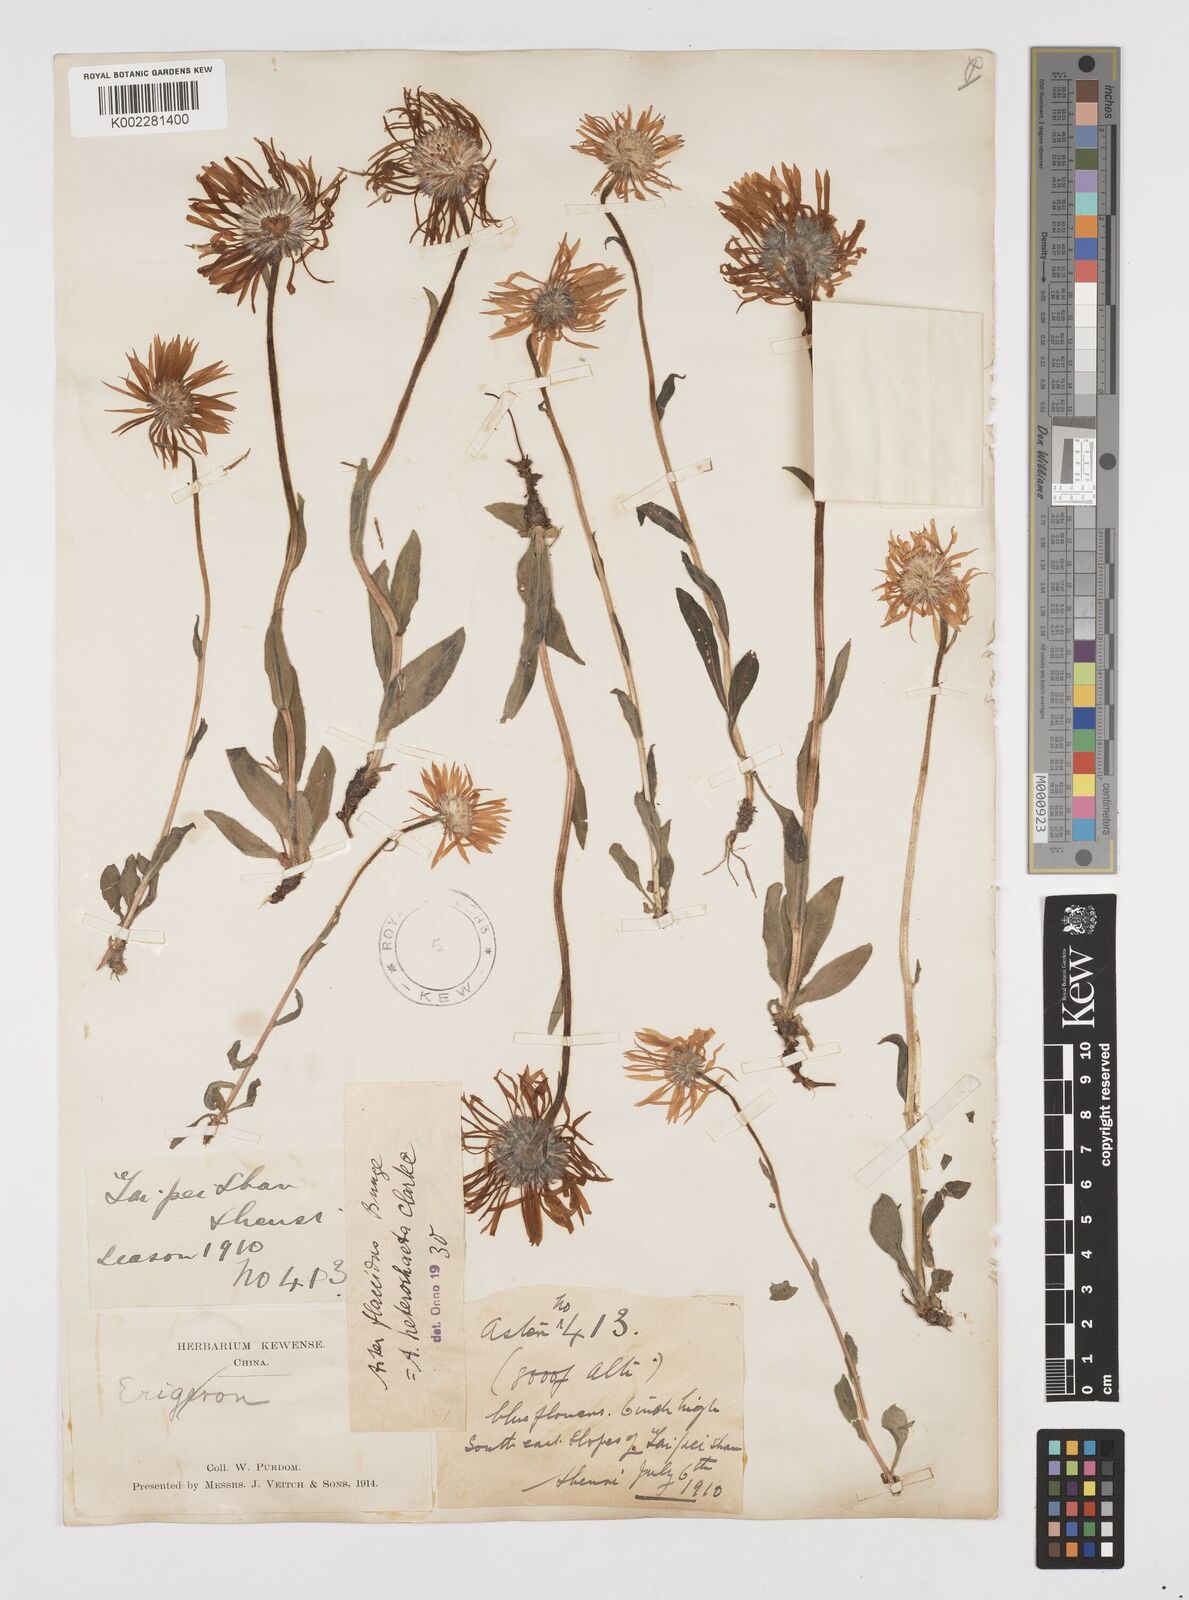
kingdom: Plantae
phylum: Tracheophyta
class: Magnoliopsida
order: Asterales
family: Asteraceae
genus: Tibetiodes
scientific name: Tibetiodes flaccida
